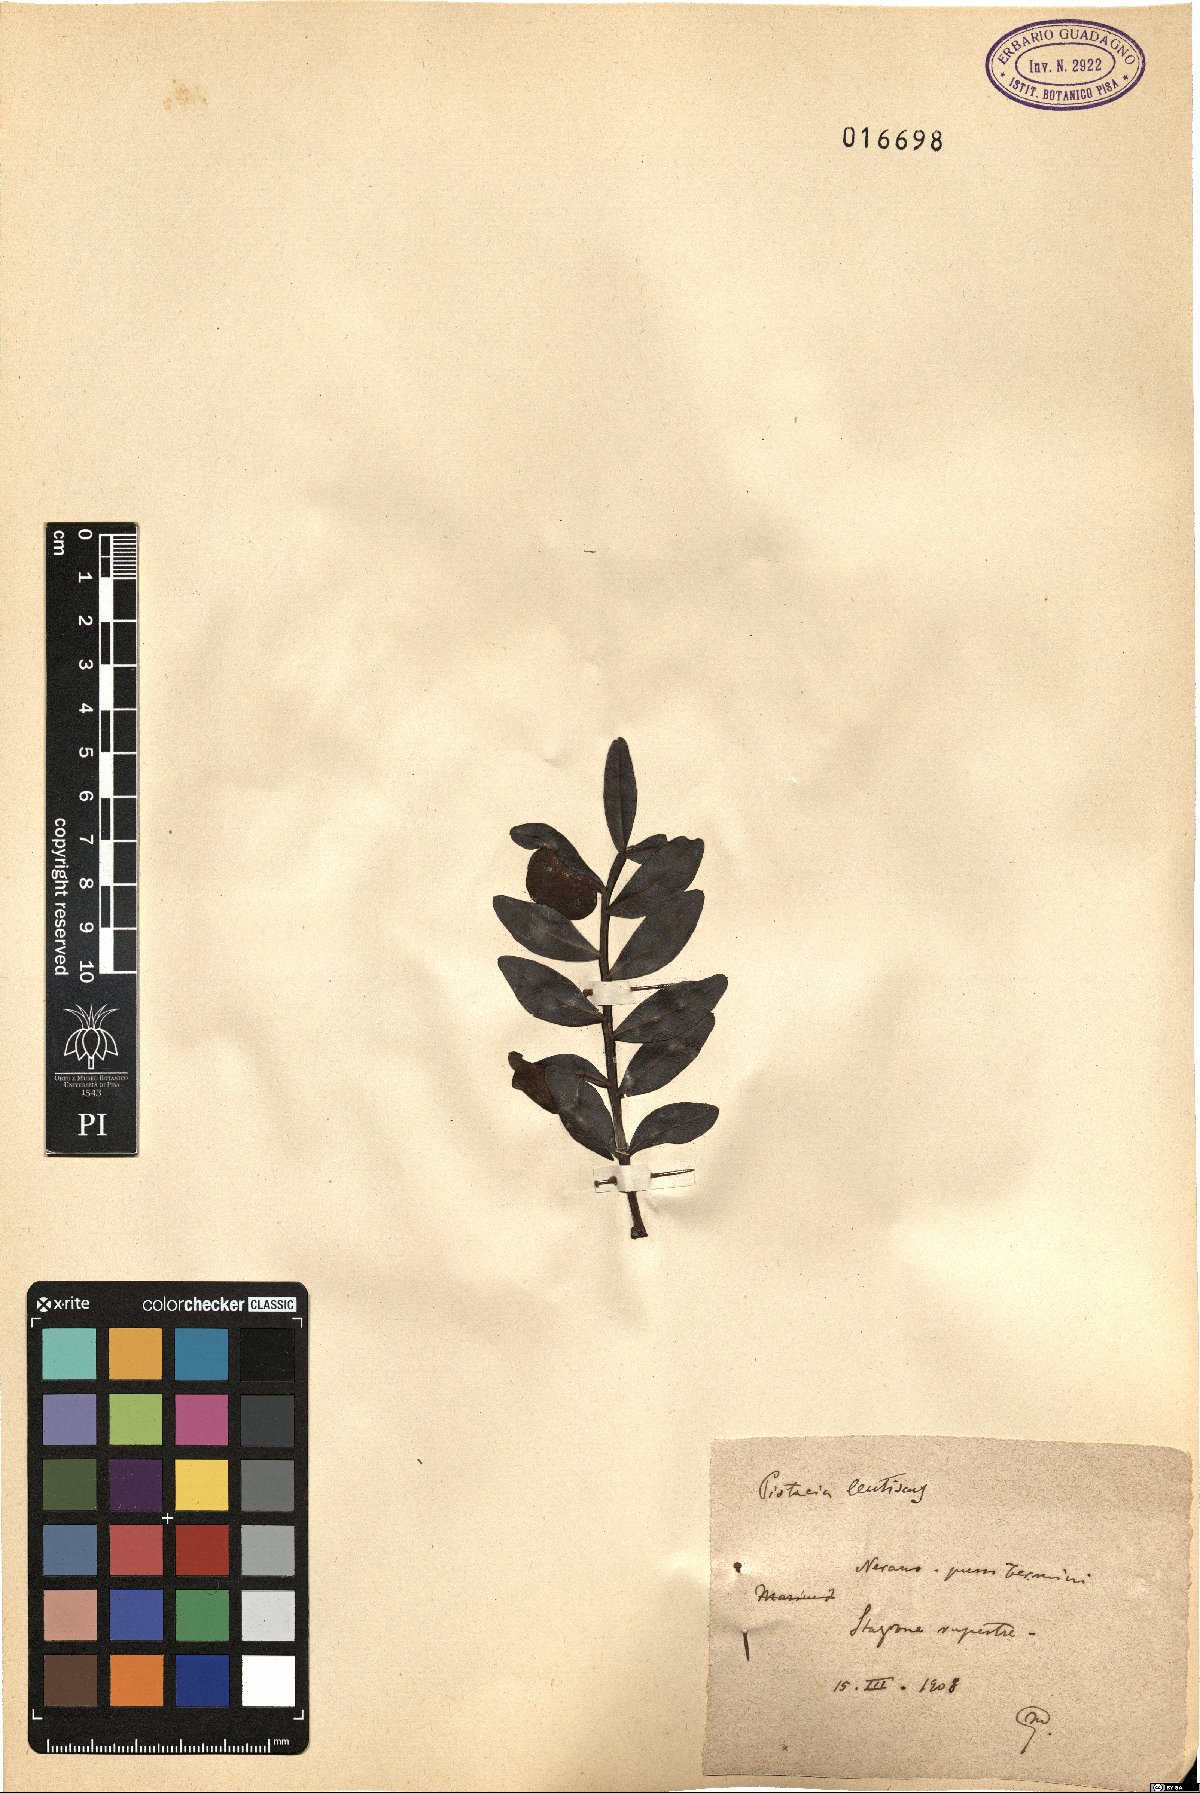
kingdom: Plantae
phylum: Tracheophyta
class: Magnoliopsida
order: Sapindales
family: Anacardiaceae
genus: Pistacia
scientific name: Pistacia lentiscus
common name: Lentisk
